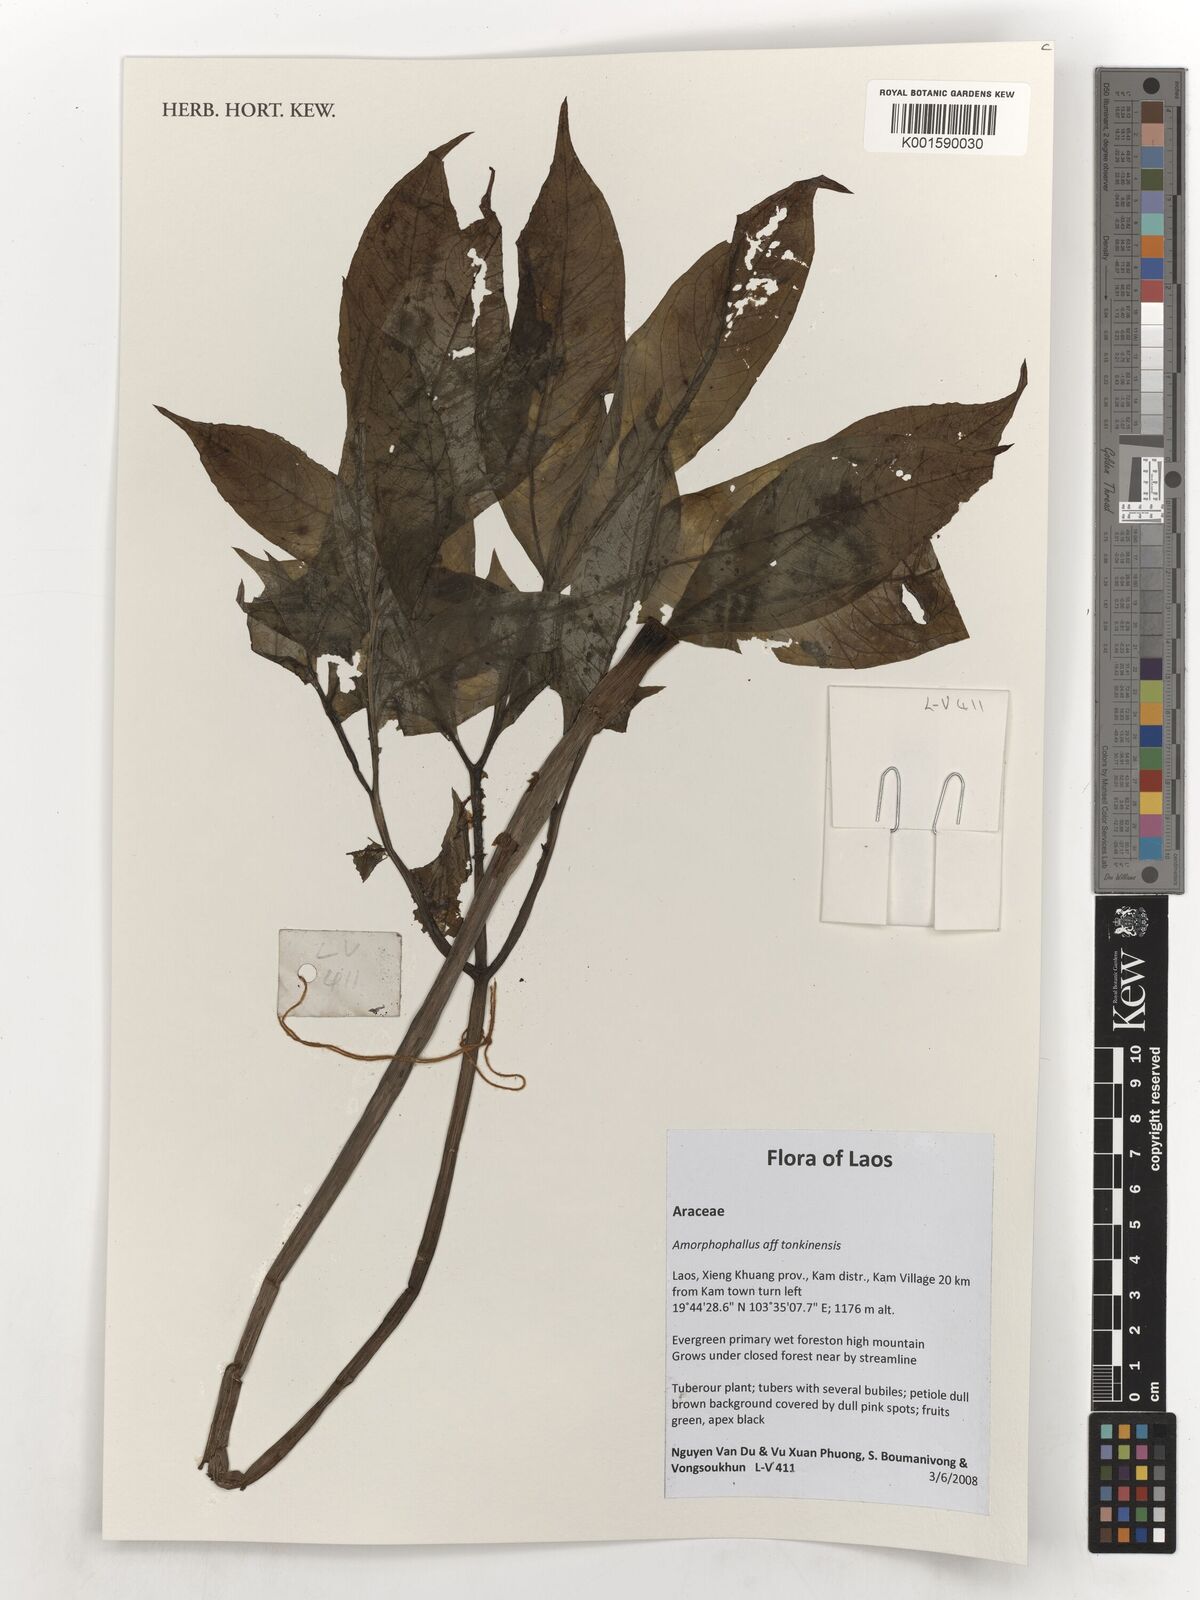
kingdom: Plantae
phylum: Tracheophyta
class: Liliopsida
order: Alismatales
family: Araceae
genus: Amorphophallus
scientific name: Amorphophallus tonkinensis
